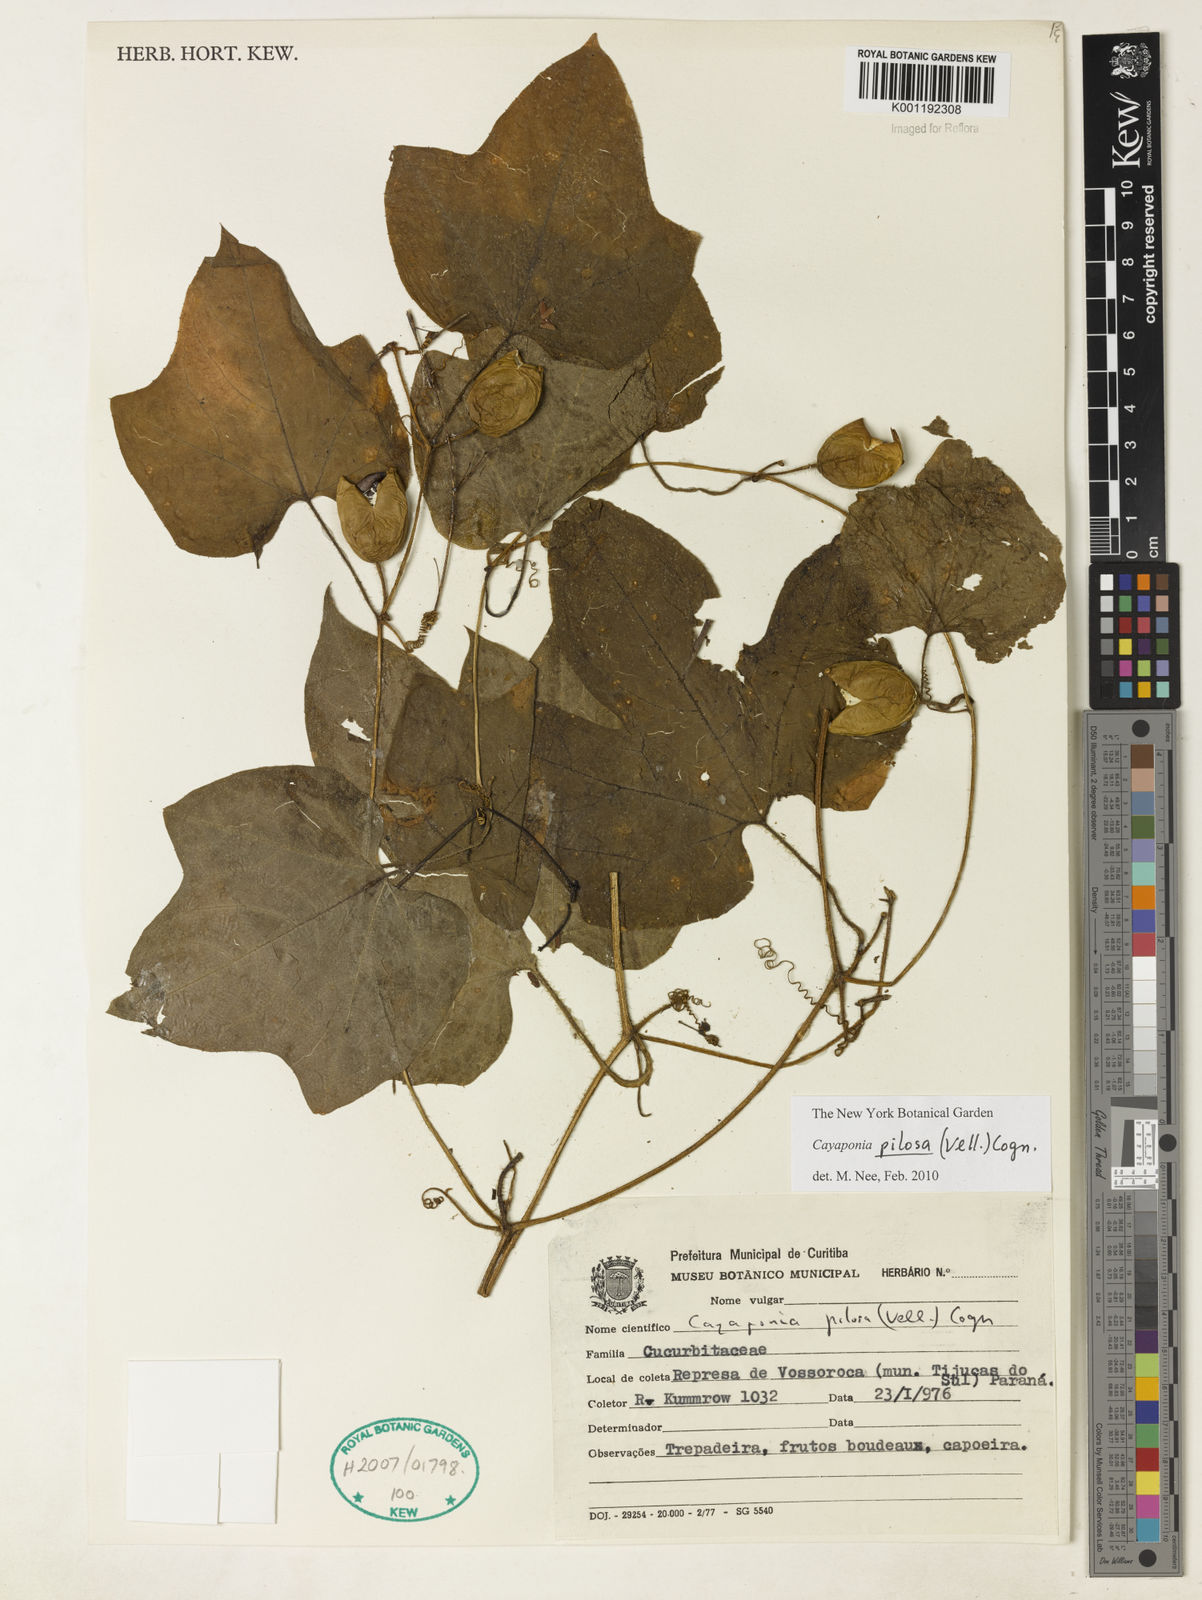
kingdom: Plantae
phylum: Tracheophyta
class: Magnoliopsida
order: Cucurbitales
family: Cucurbitaceae
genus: Cayaponia
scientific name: Cayaponia pilosa
